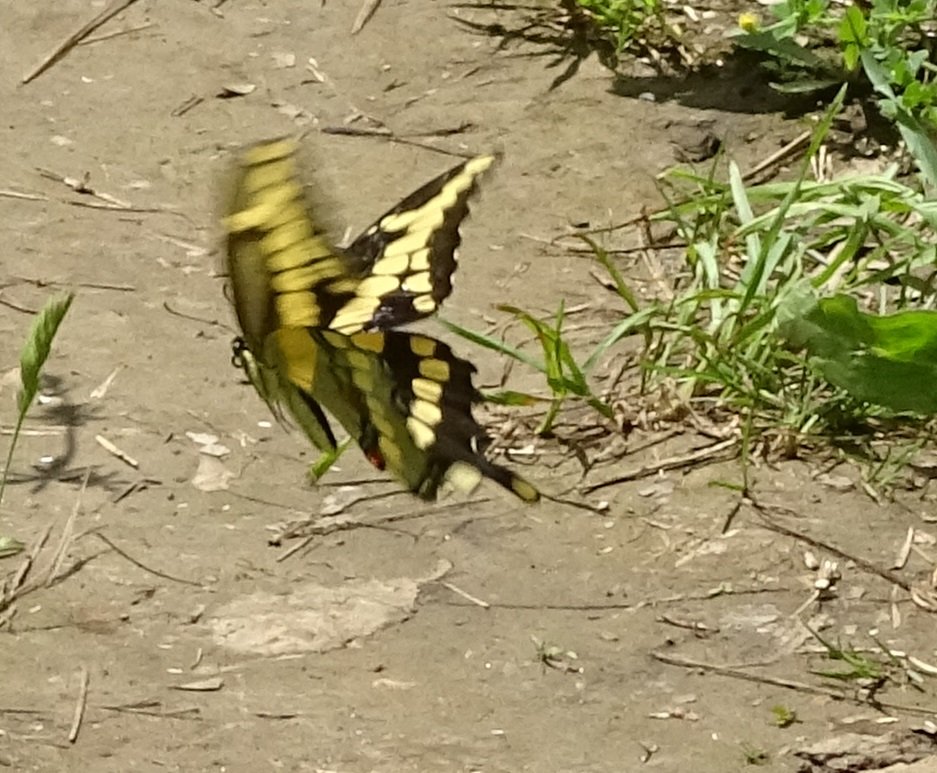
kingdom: Animalia
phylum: Arthropoda
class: Insecta
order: Lepidoptera
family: Papilionidae
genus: Papilio
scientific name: Papilio cresphontes
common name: Eastern Giant Swallowtail
